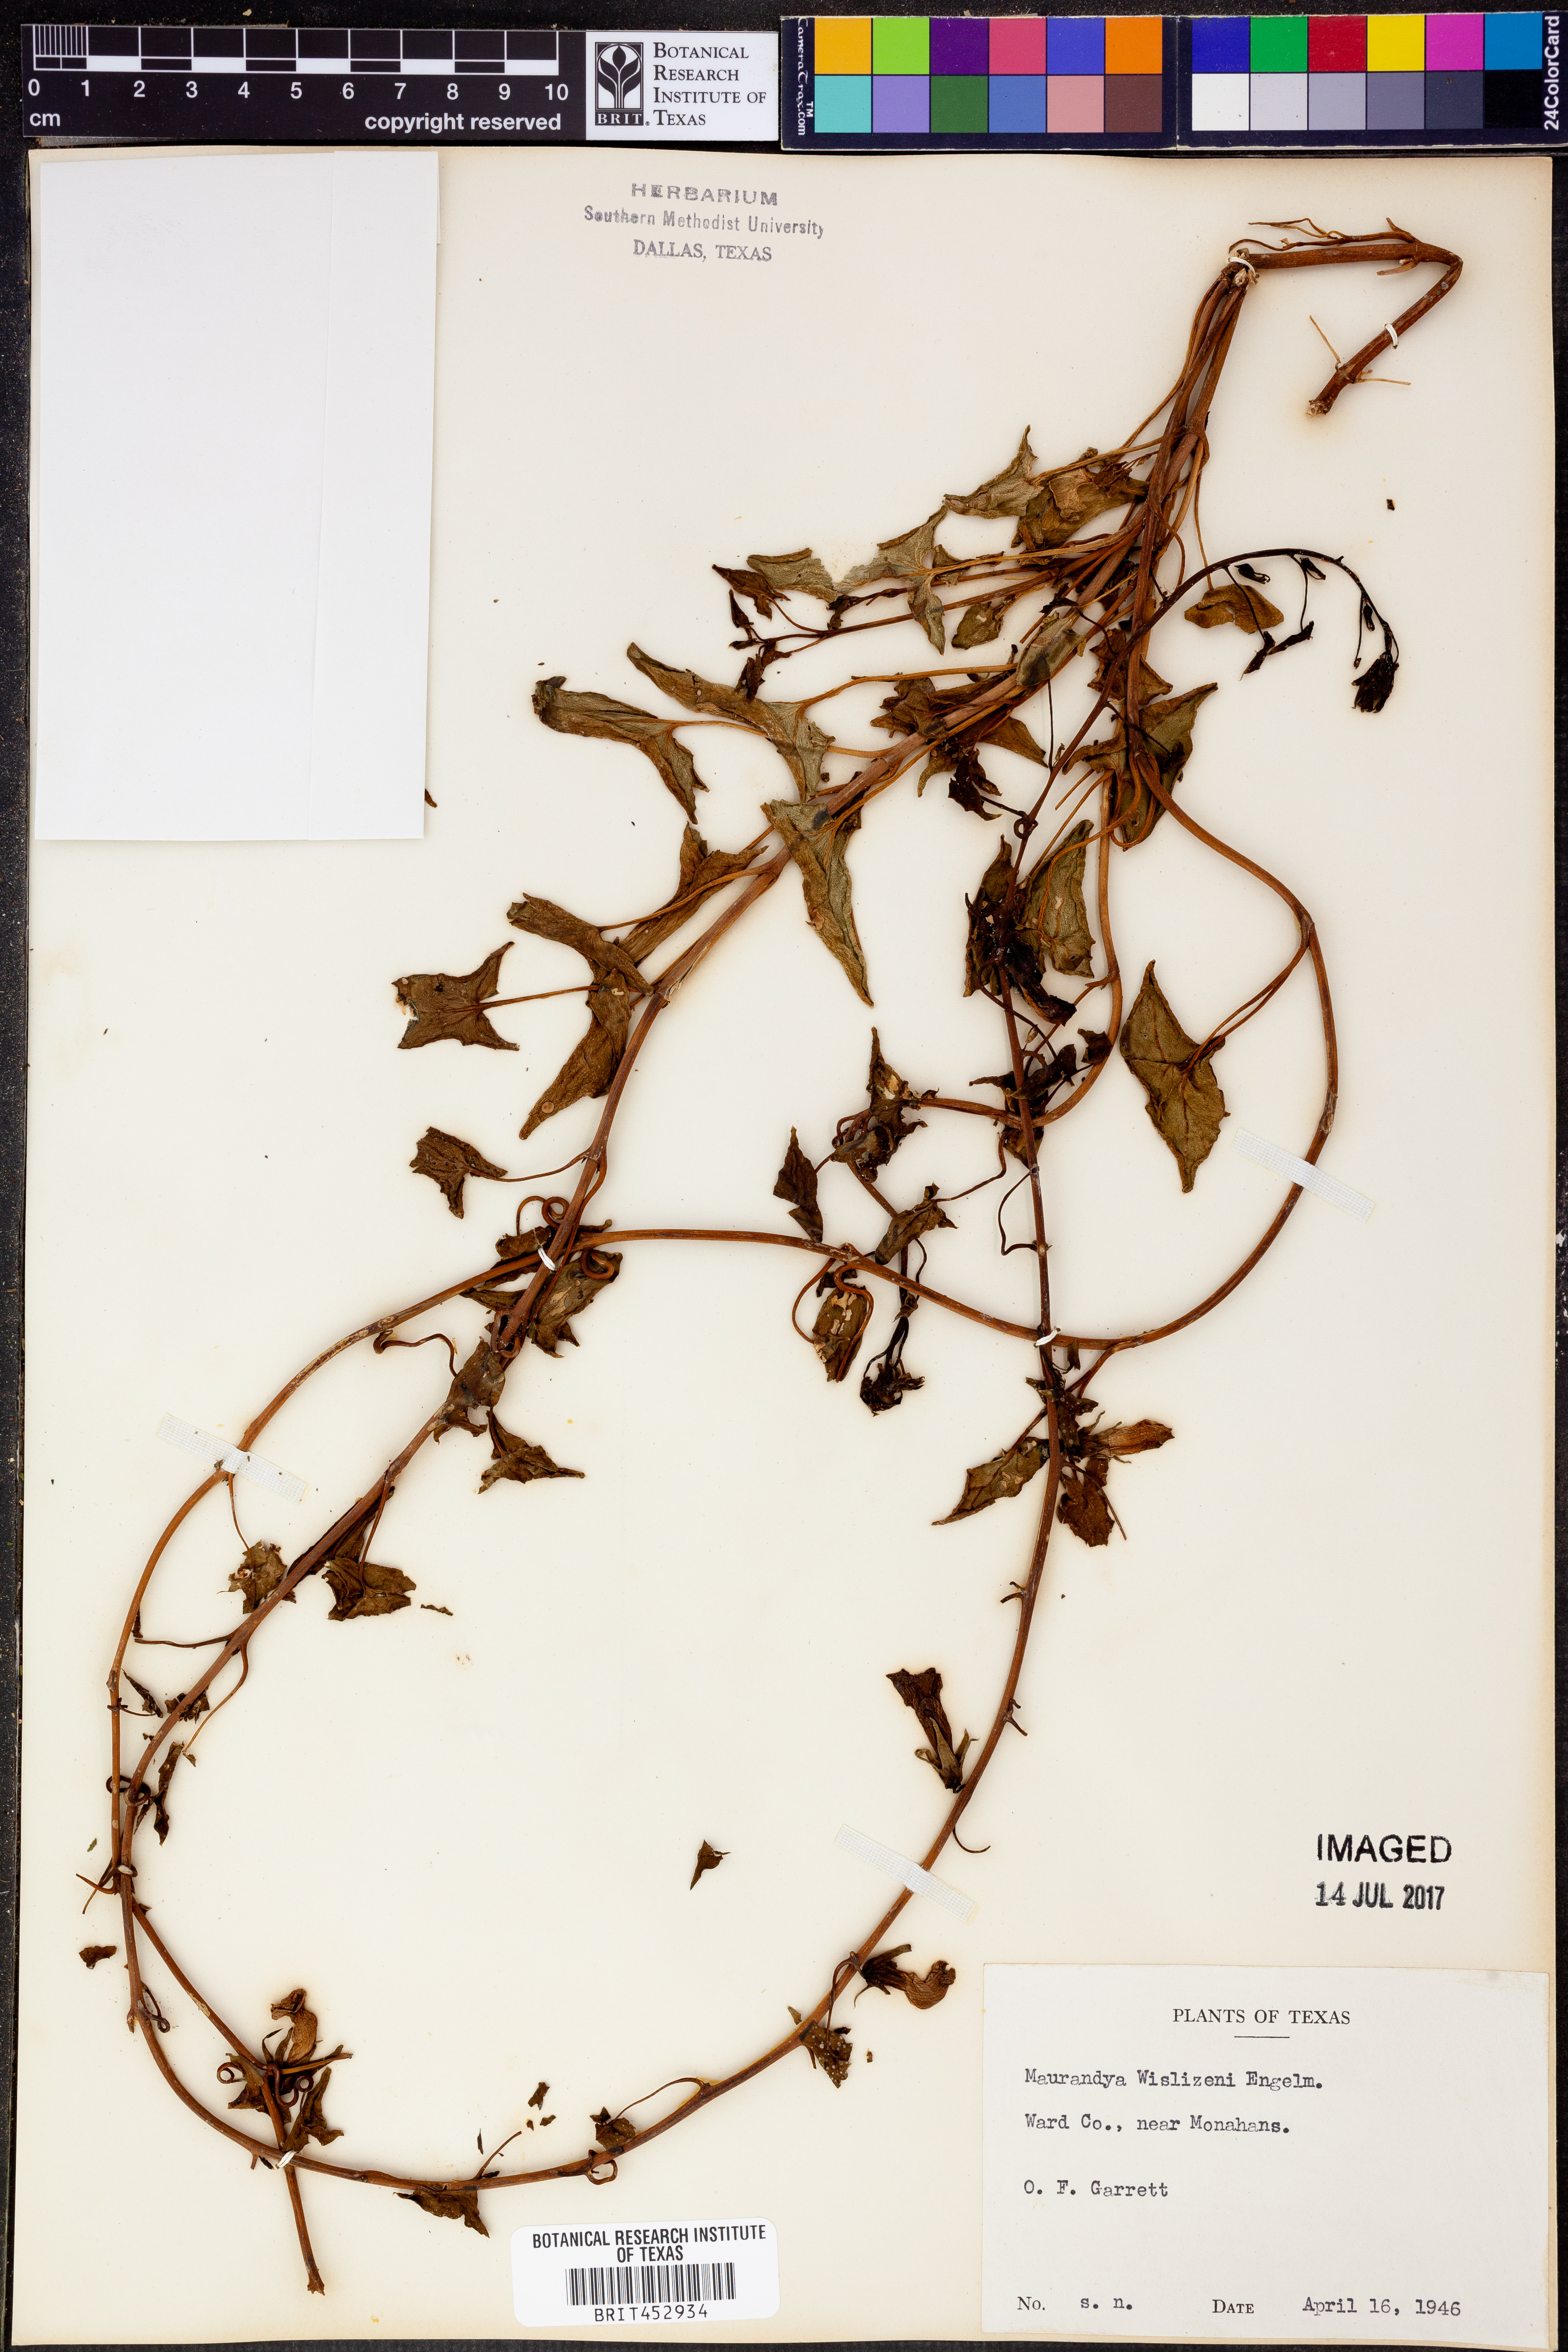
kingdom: Plantae
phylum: Tracheophyta
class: Magnoliopsida
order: Lamiales
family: Plantaginaceae
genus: Epixiphium
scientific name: Epixiphium wislizeni
